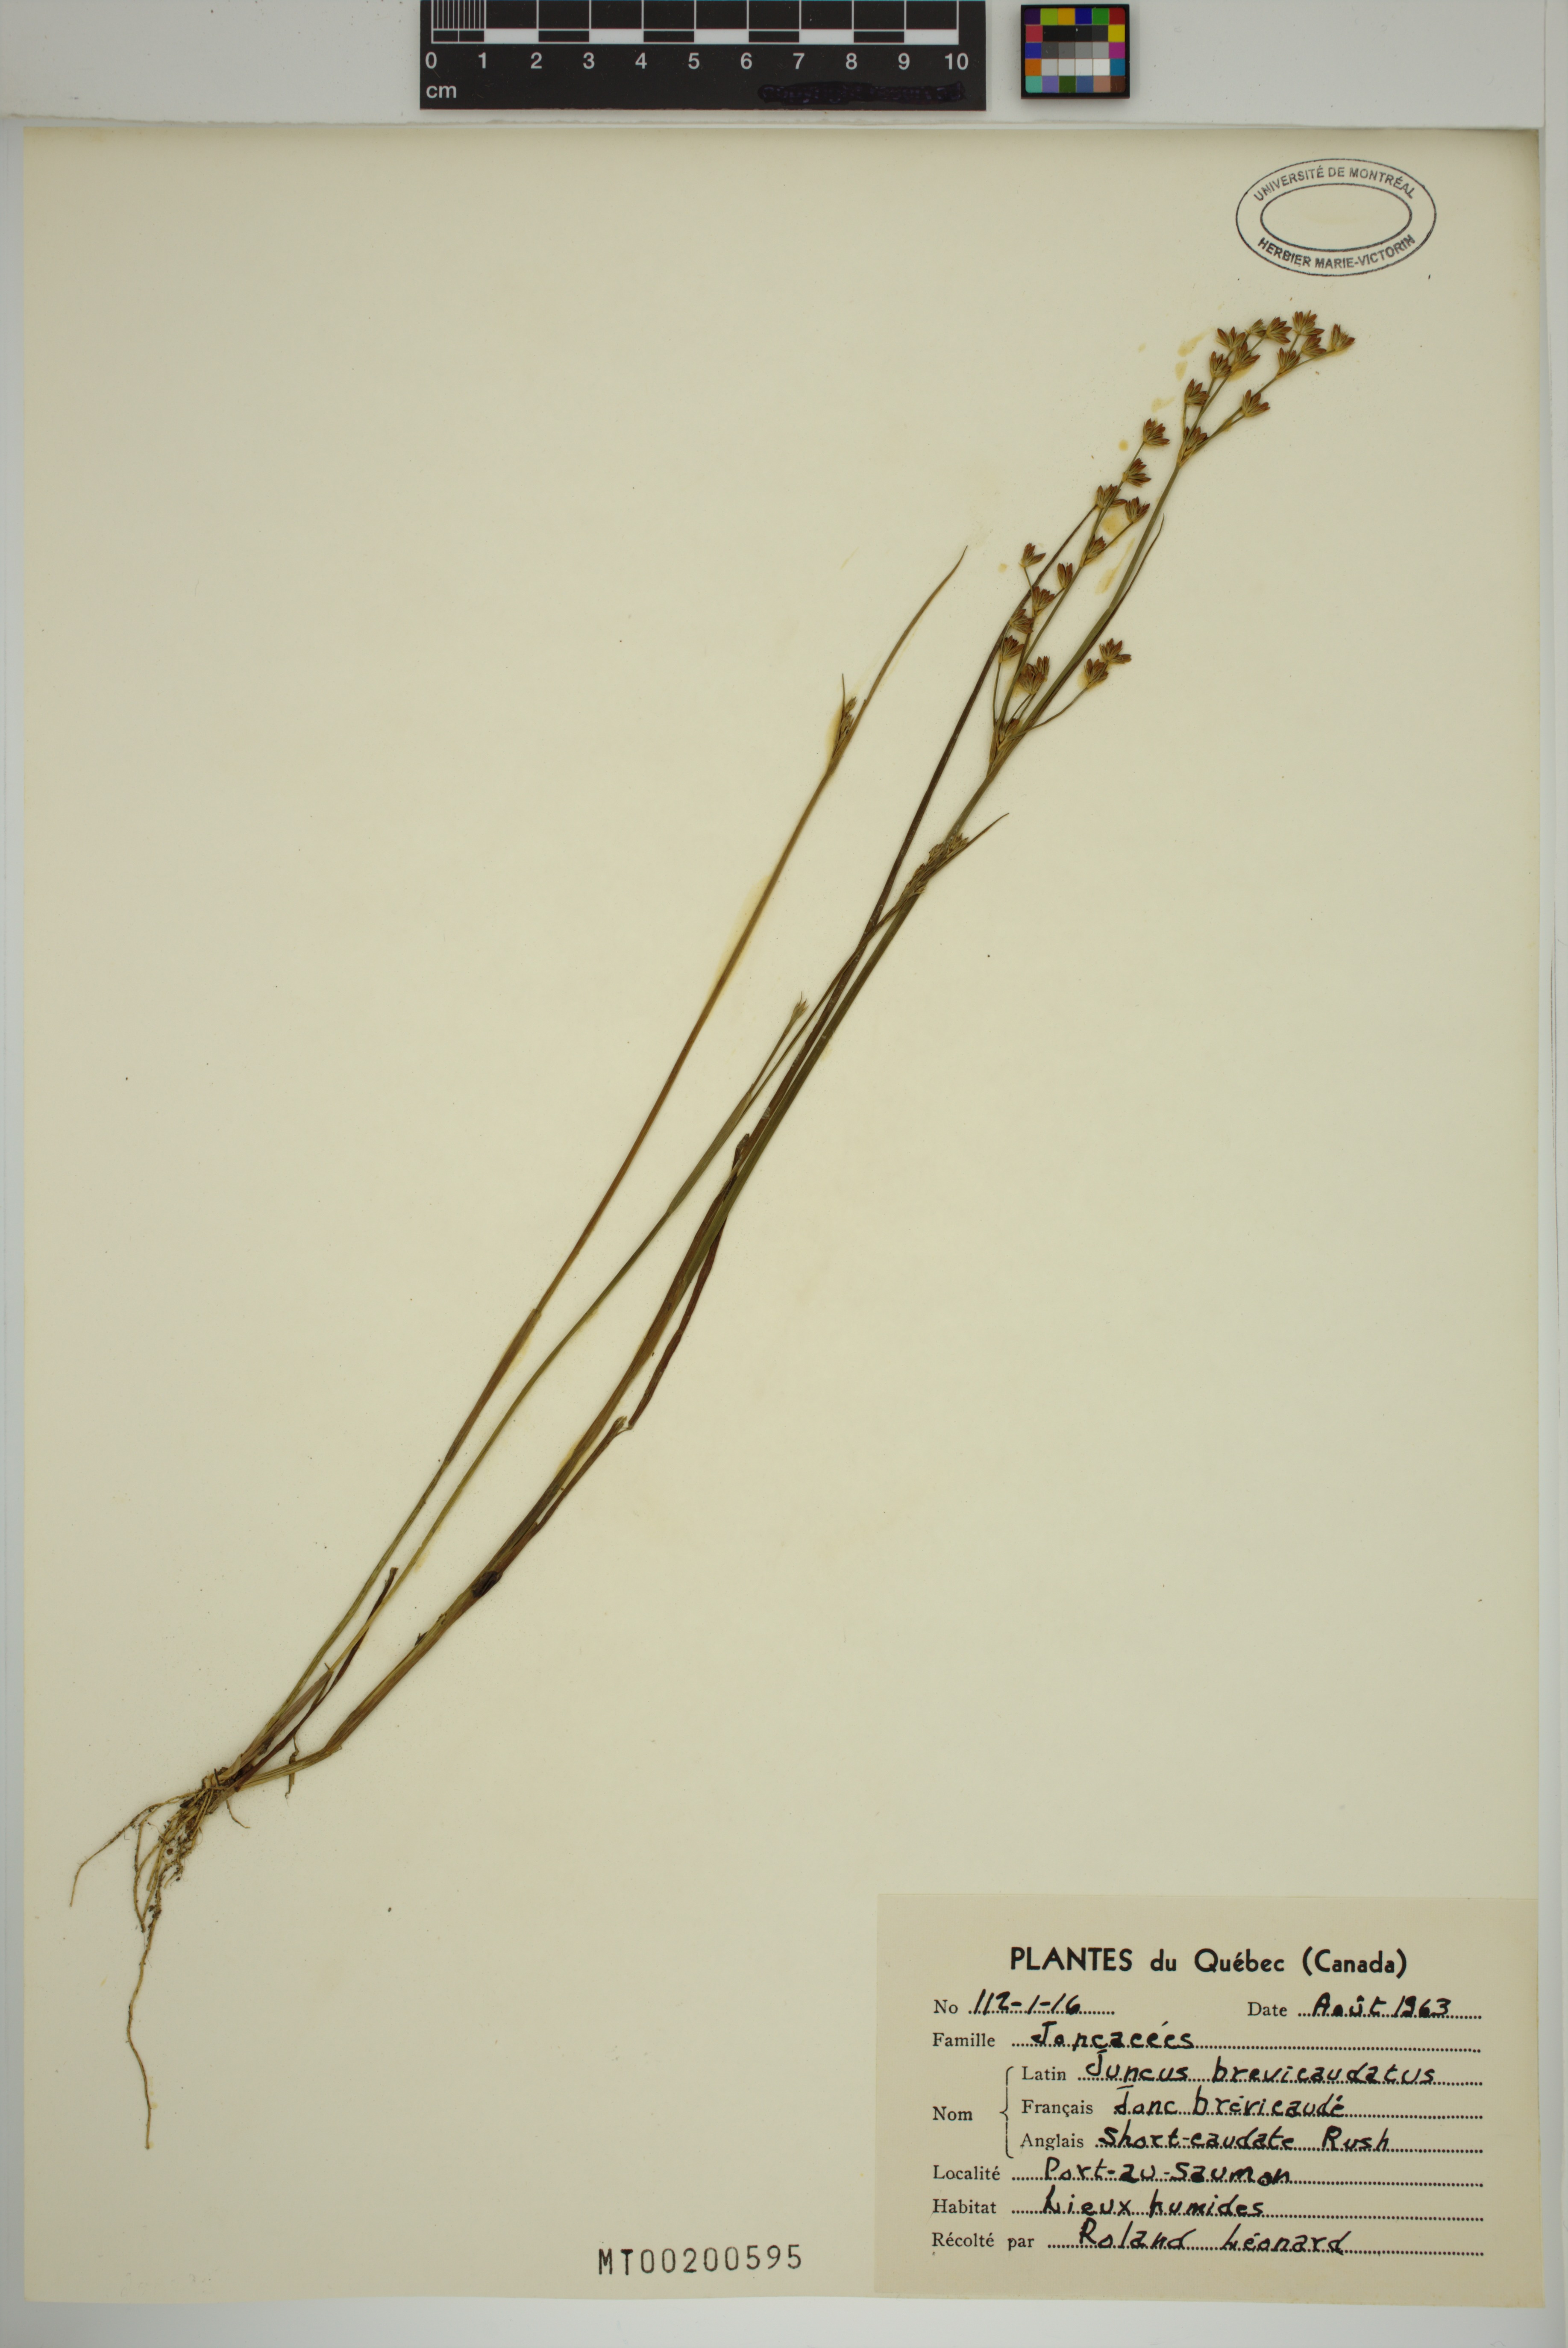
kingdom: Plantae
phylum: Tracheophyta
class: Liliopsida
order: Poales
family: Juncaceae
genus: Juncus
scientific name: Juncus brevicaudatus
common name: Narrow-panicle rush
